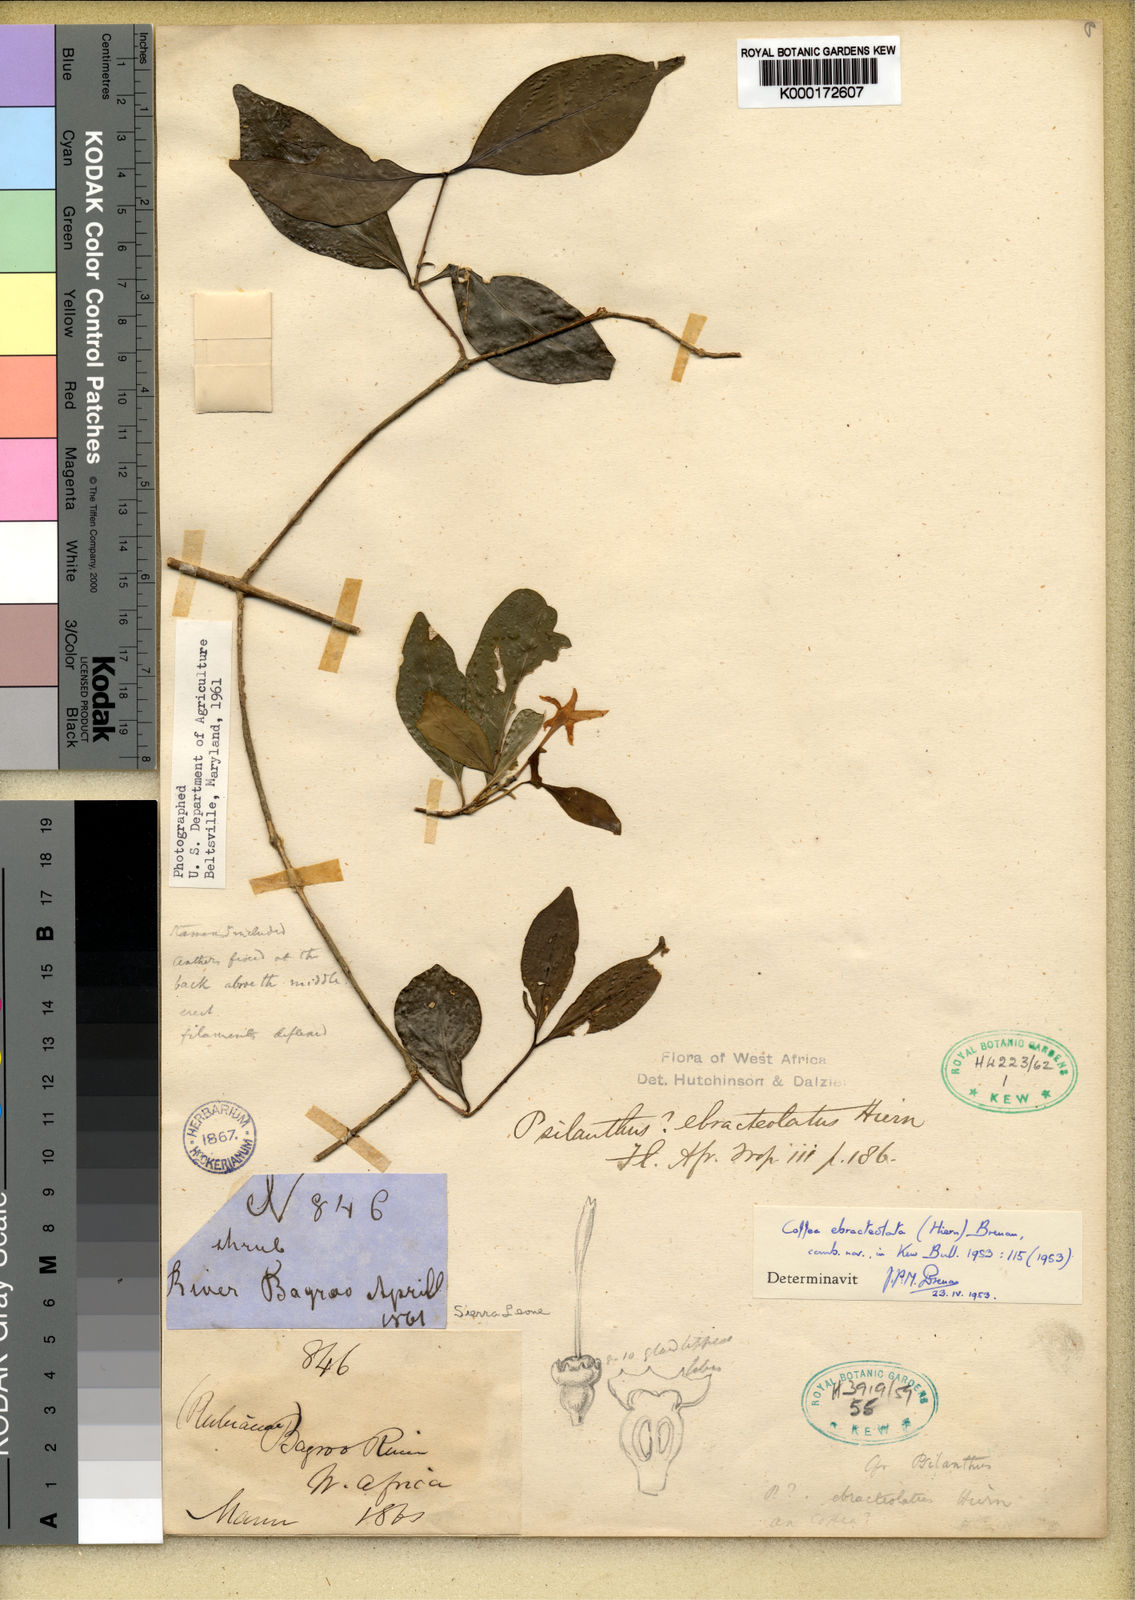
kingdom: Plantae
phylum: Tracheophyta
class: Magnoliopsida
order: Gentianales
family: Rubiaceae
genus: Coffea
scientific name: Coffea ebracteolata
